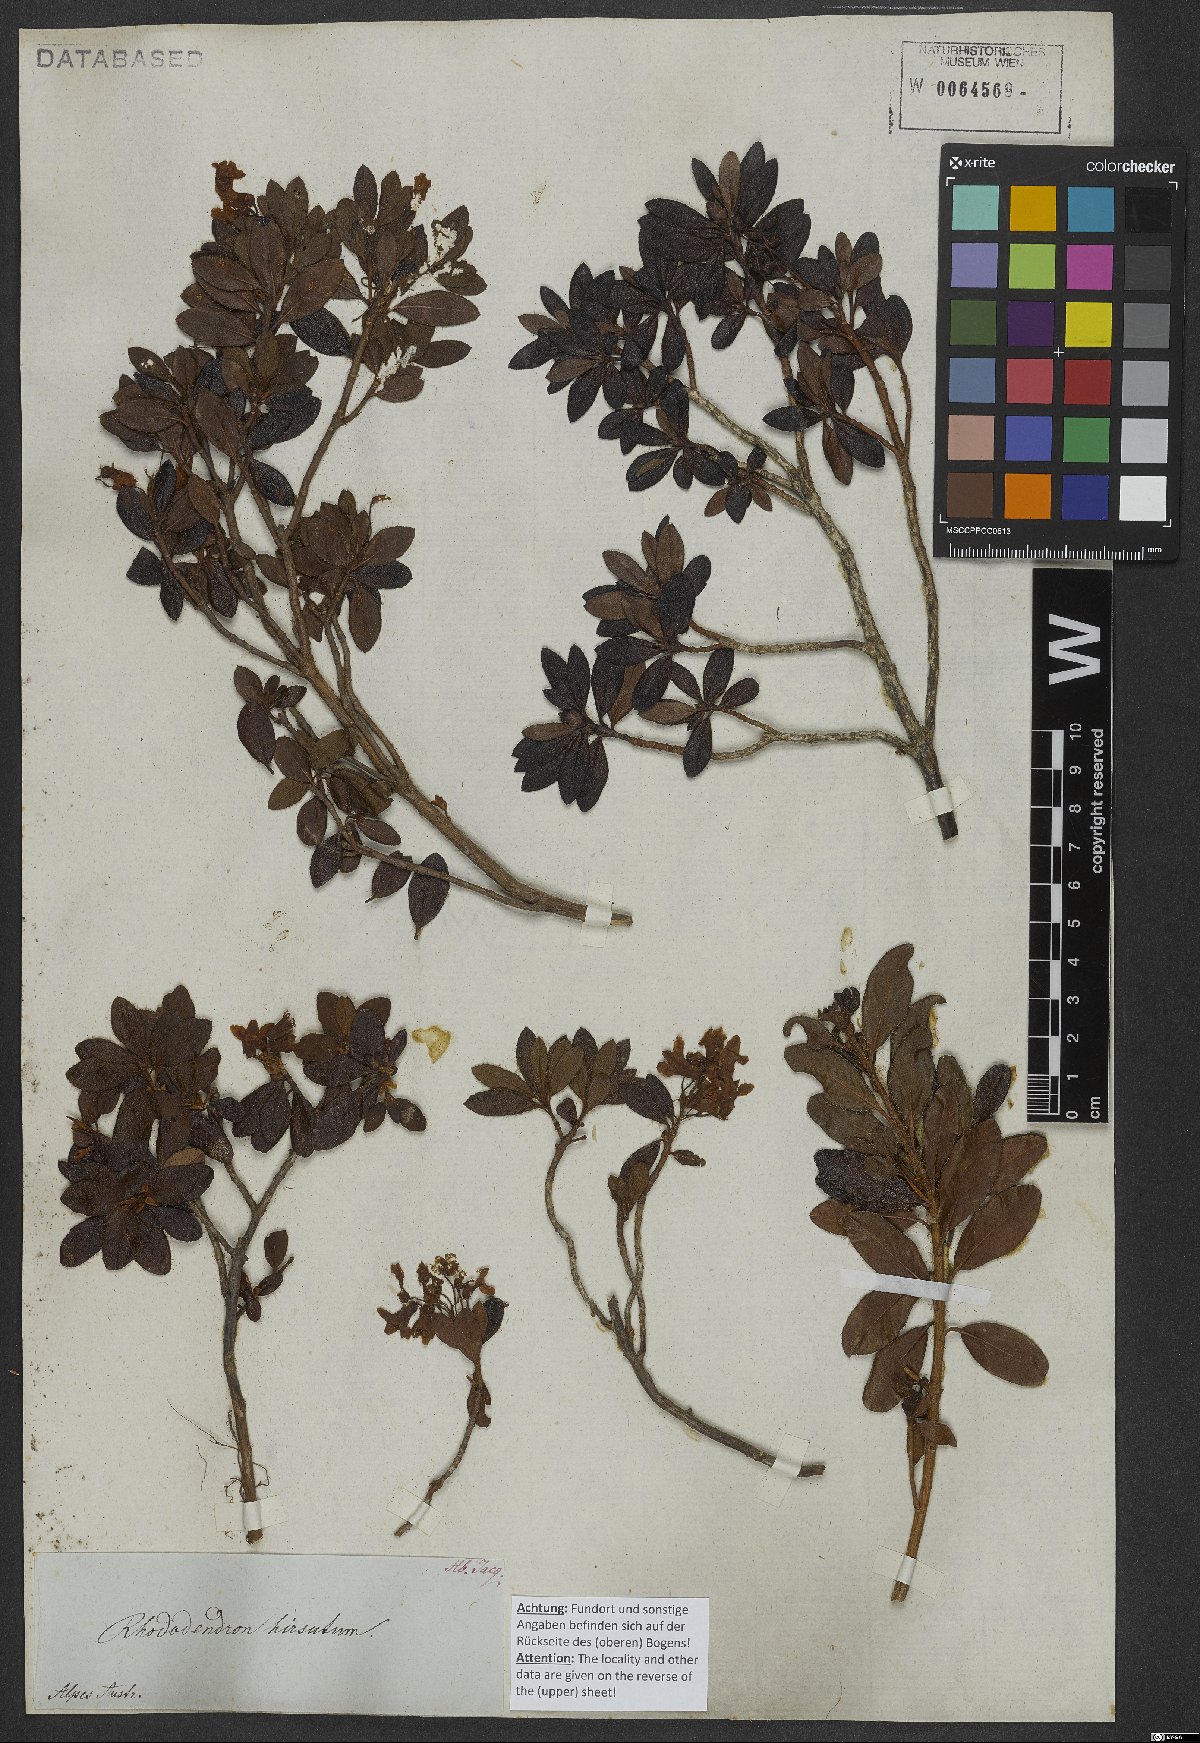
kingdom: Plantae
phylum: Tracheophyta
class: Magnoliopsida
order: Ericales
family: Ericaceae
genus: Rhododendron
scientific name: Rhododendron hirsutum
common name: Hairy alpenrose
